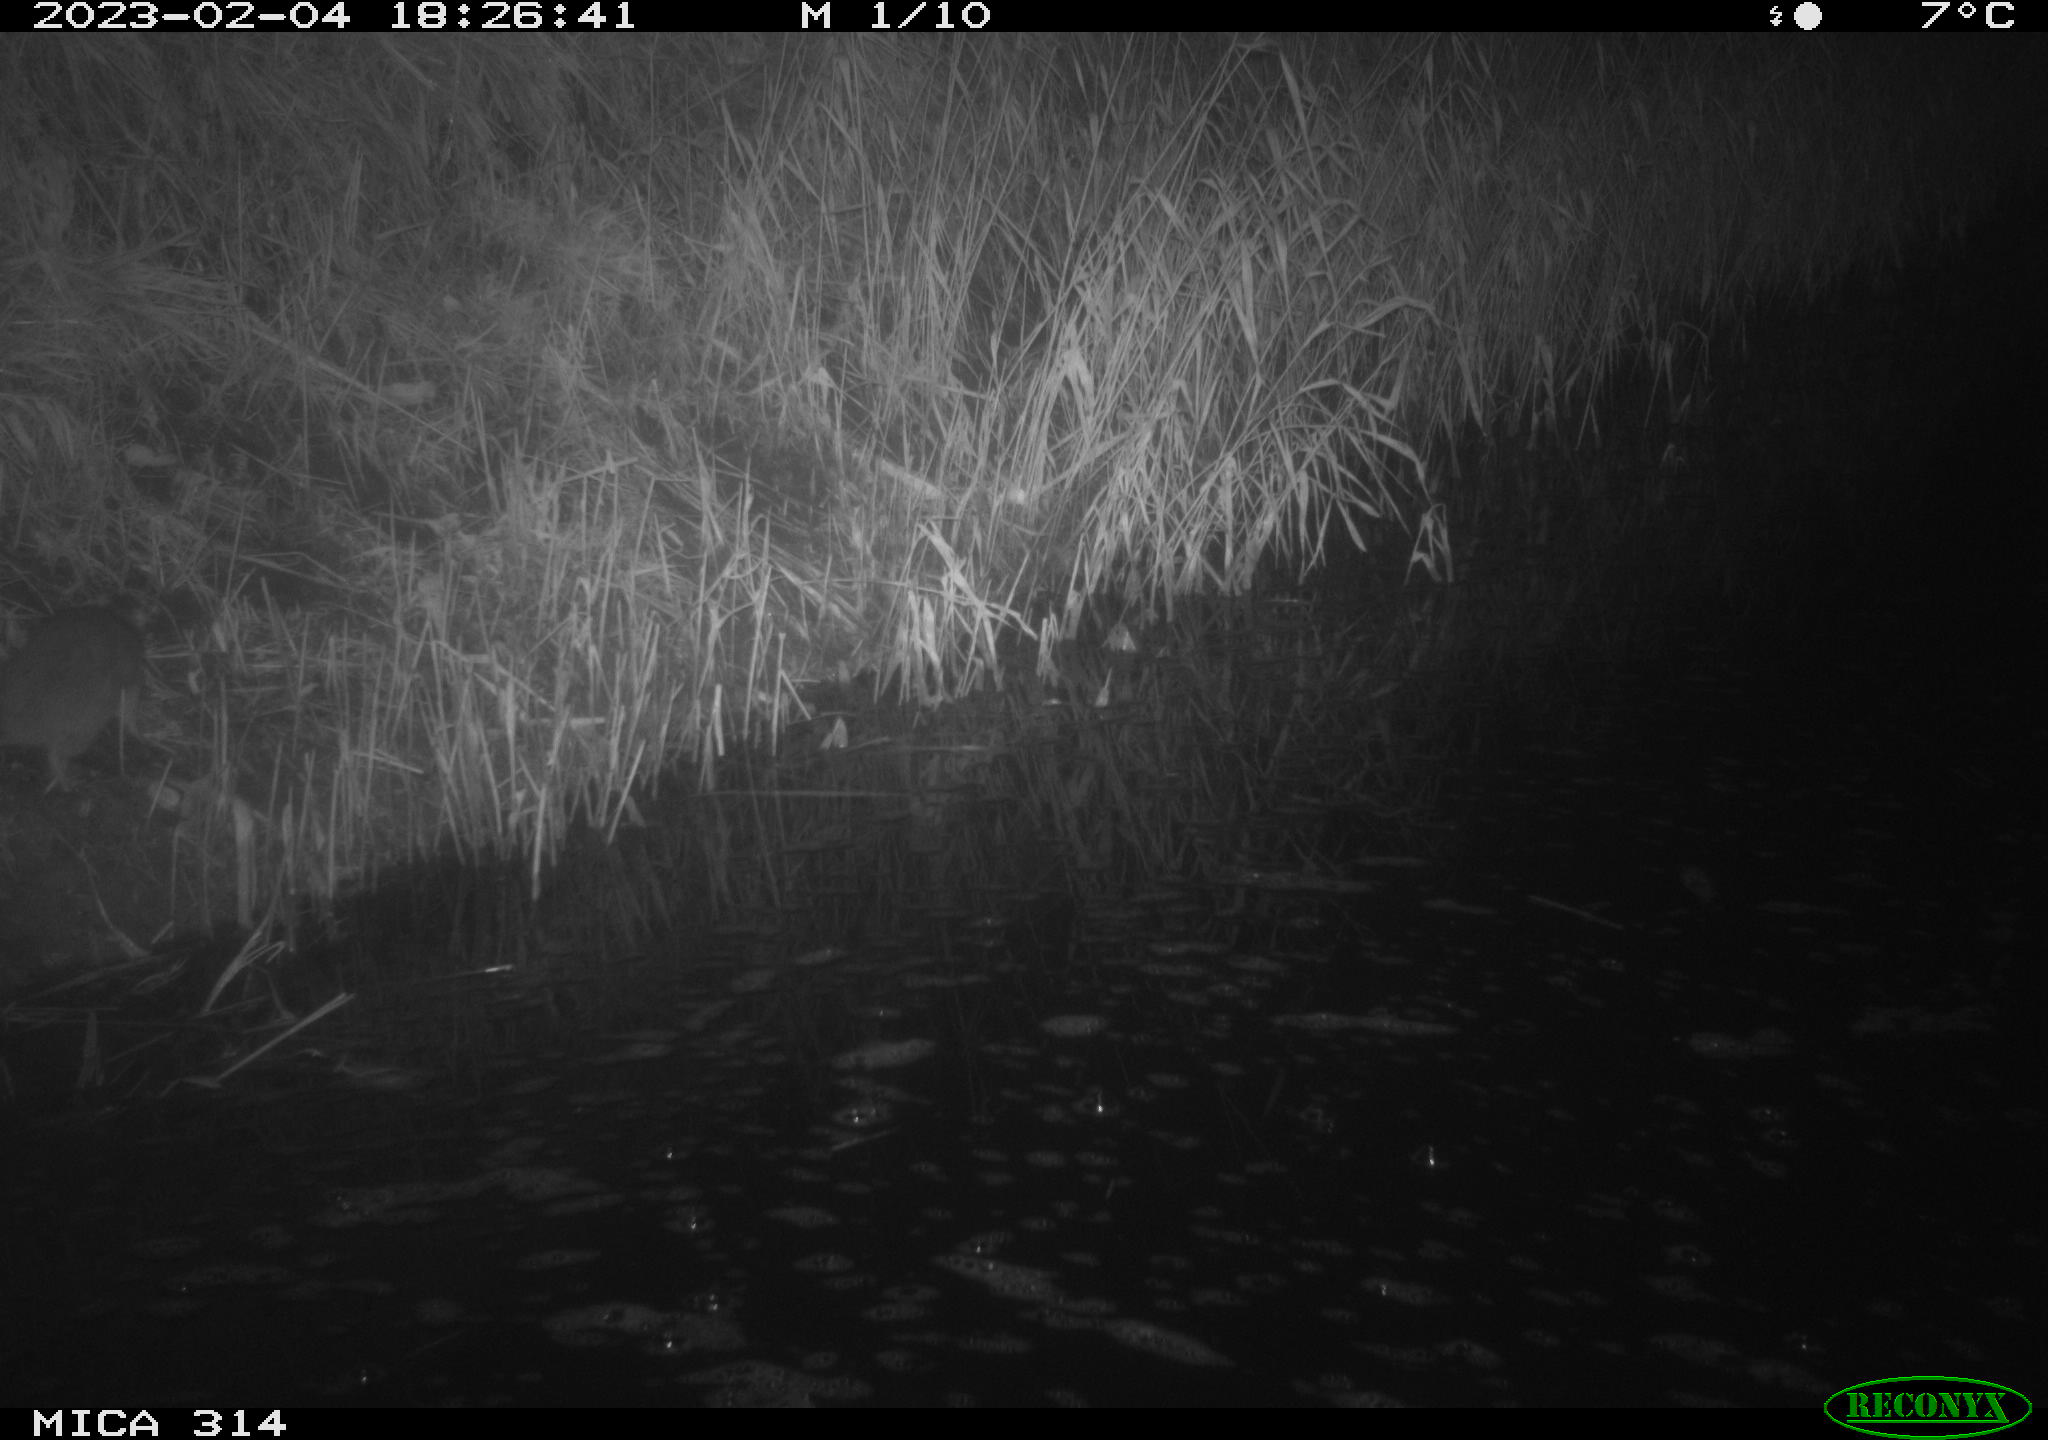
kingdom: Animalia
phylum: Chordata
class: Mammalia
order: Rodentia
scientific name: Rodentia
